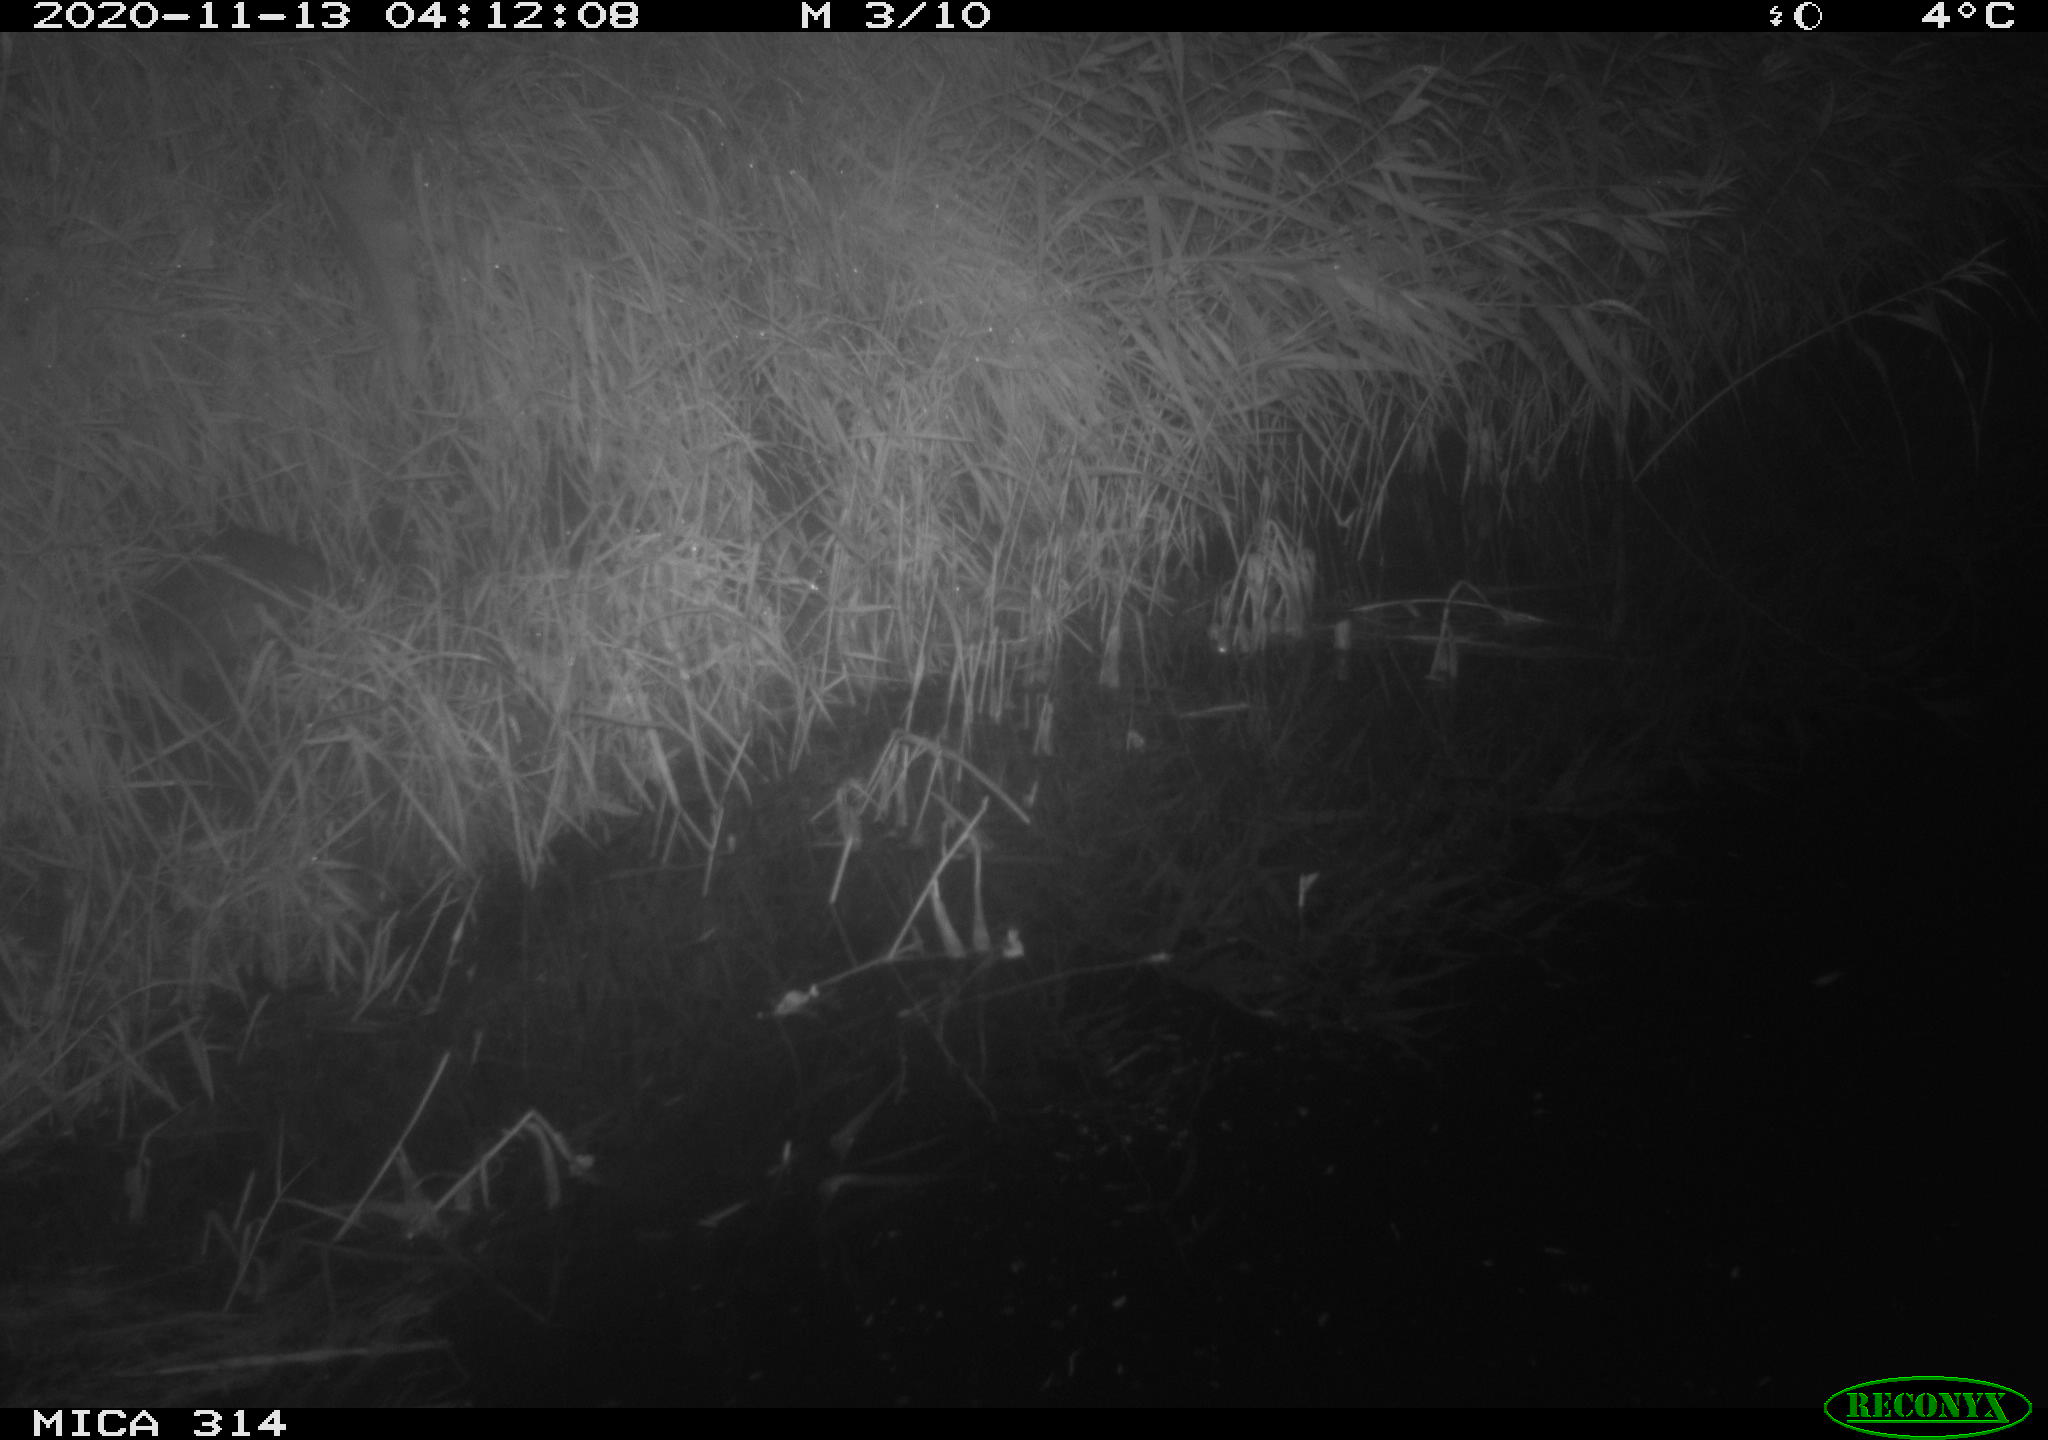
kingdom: Animalia
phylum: Chordata
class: Mammalia
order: Rodentia
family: Muridae
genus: Rattus
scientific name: Rattus norvegicus
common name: Brown rat
